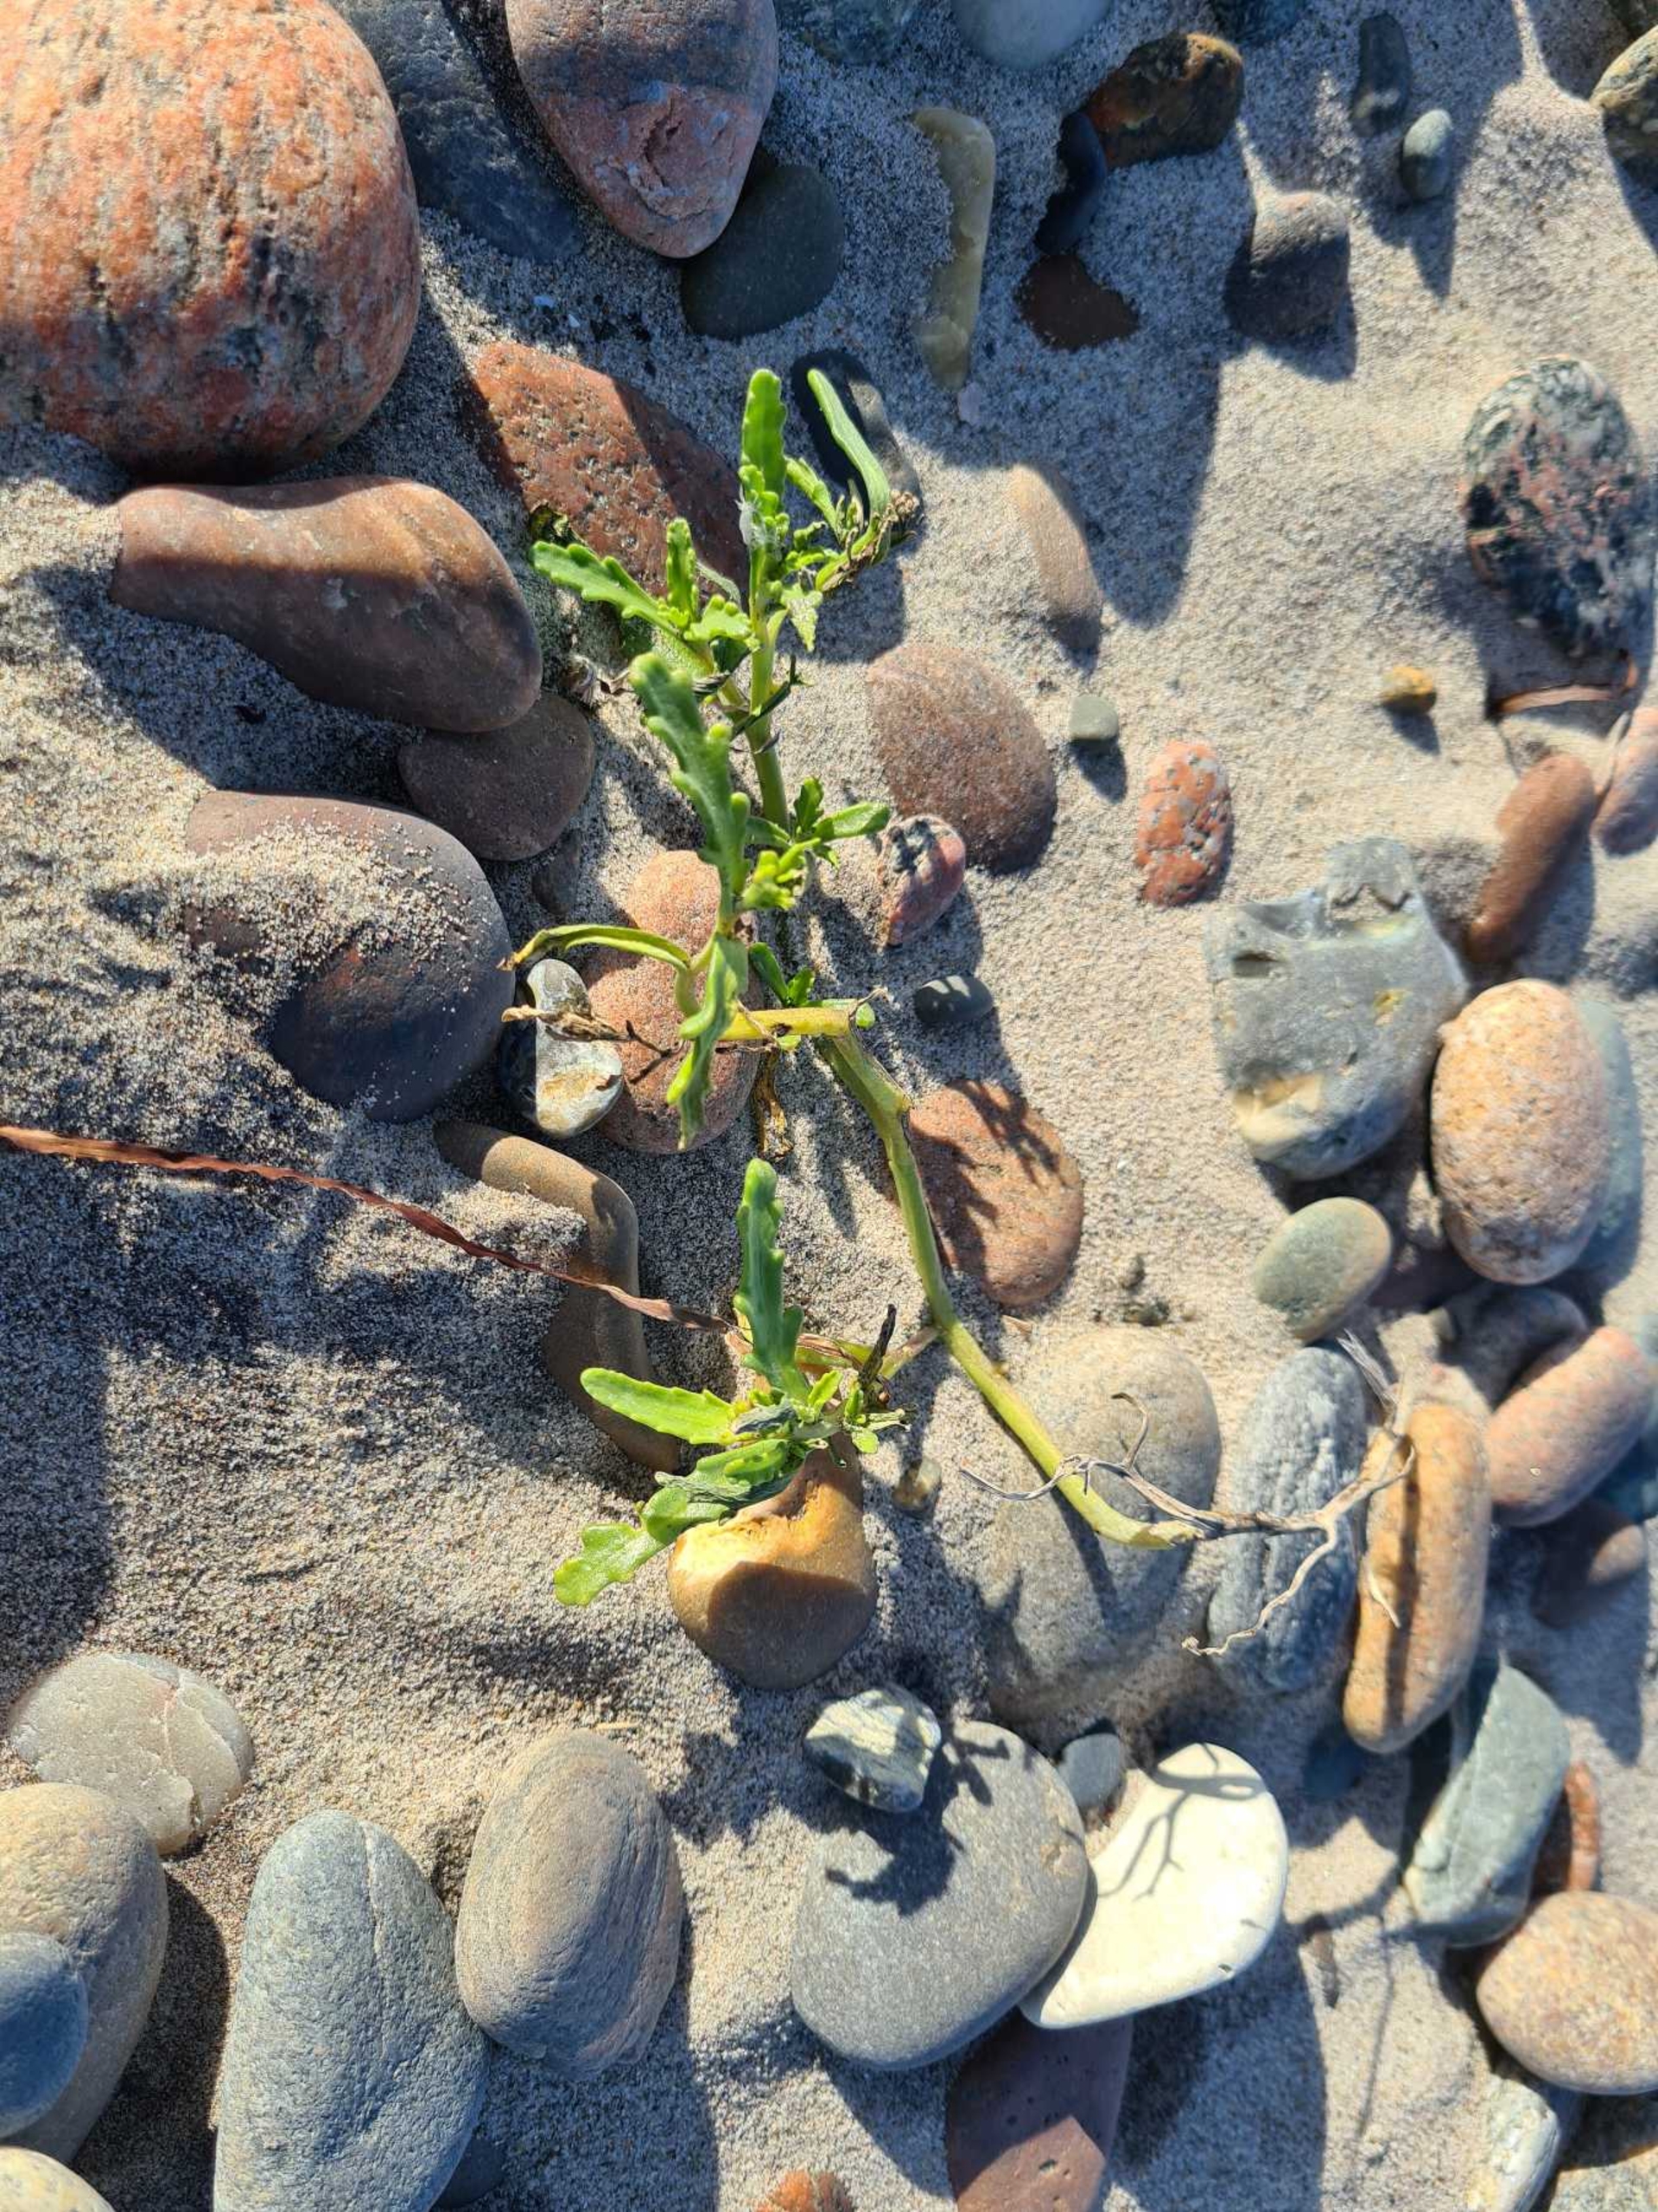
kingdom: Plantae
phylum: Tracheophyta
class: Magnoliopsida
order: Brassicales
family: Brassicaceae
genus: Cakile
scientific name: Cakile maritima
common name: Strandsennep
